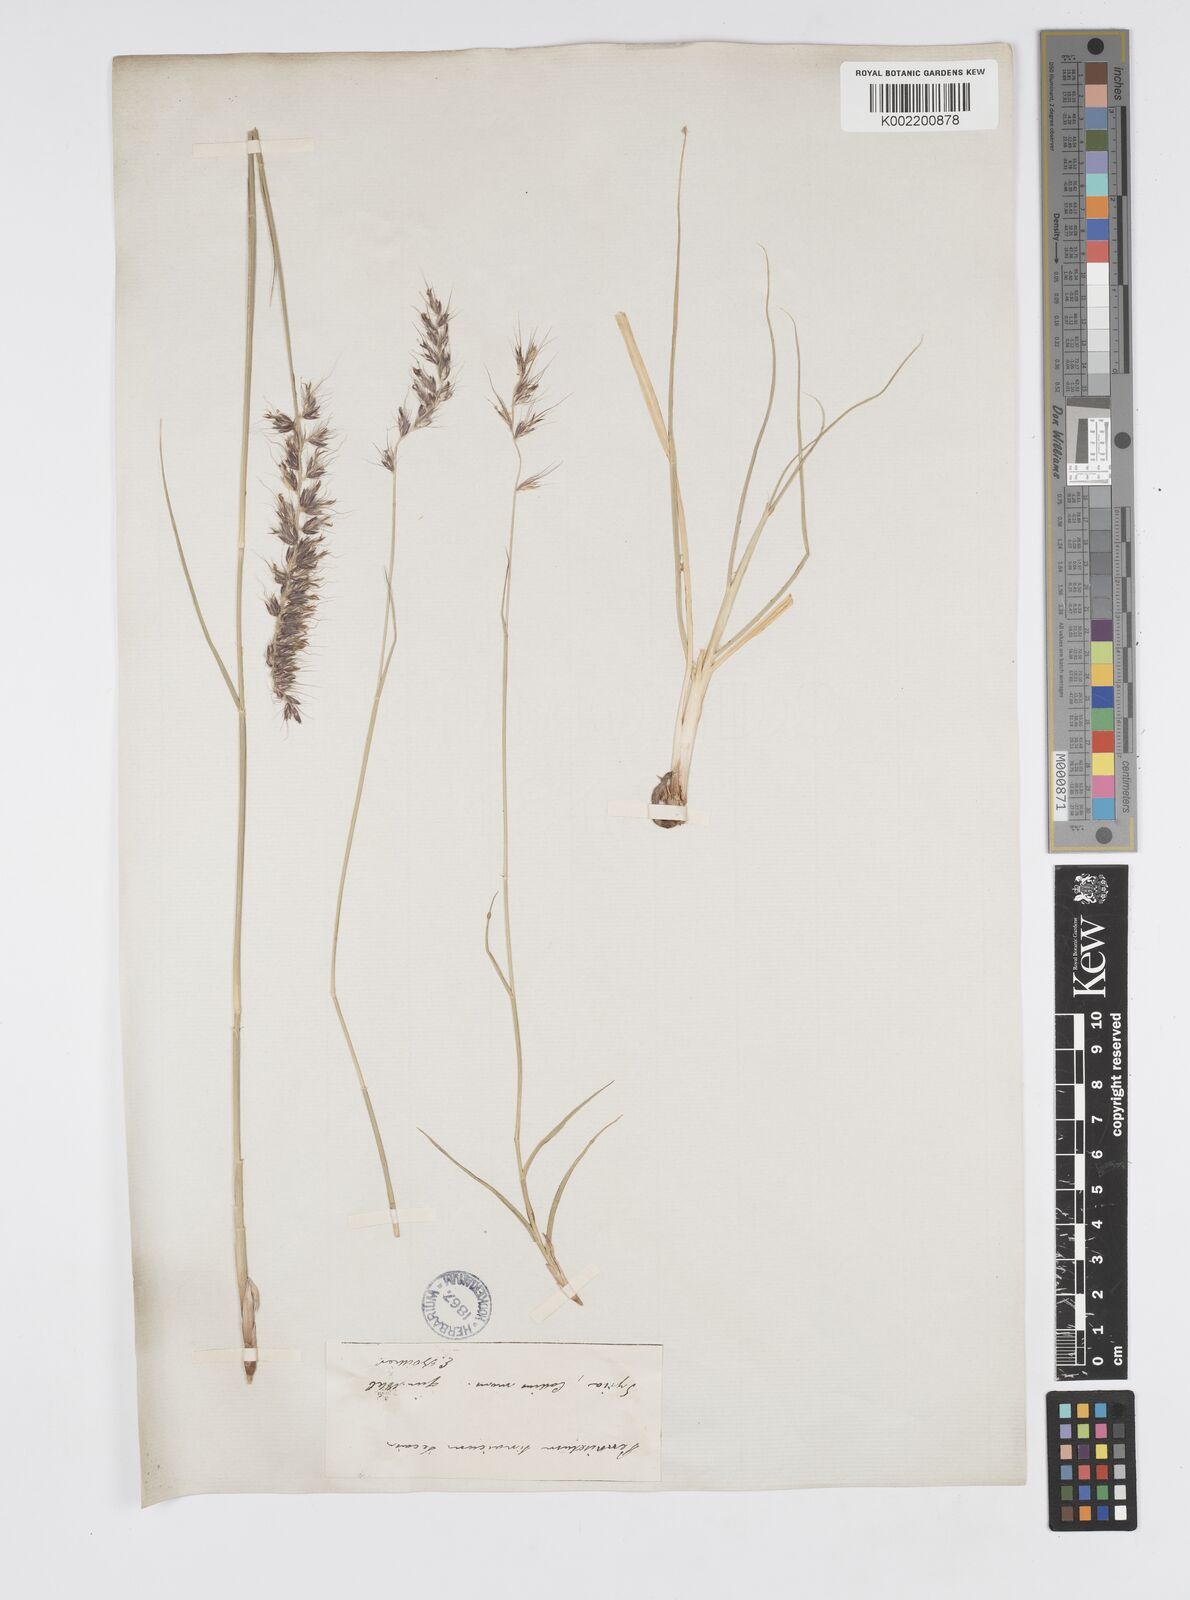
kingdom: Plantae
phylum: Tracheophyta
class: Liliopsida
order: Poales
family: Poaceae
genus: Cenchrus
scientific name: Cenchrus orientalis
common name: Oriental fountain grass
